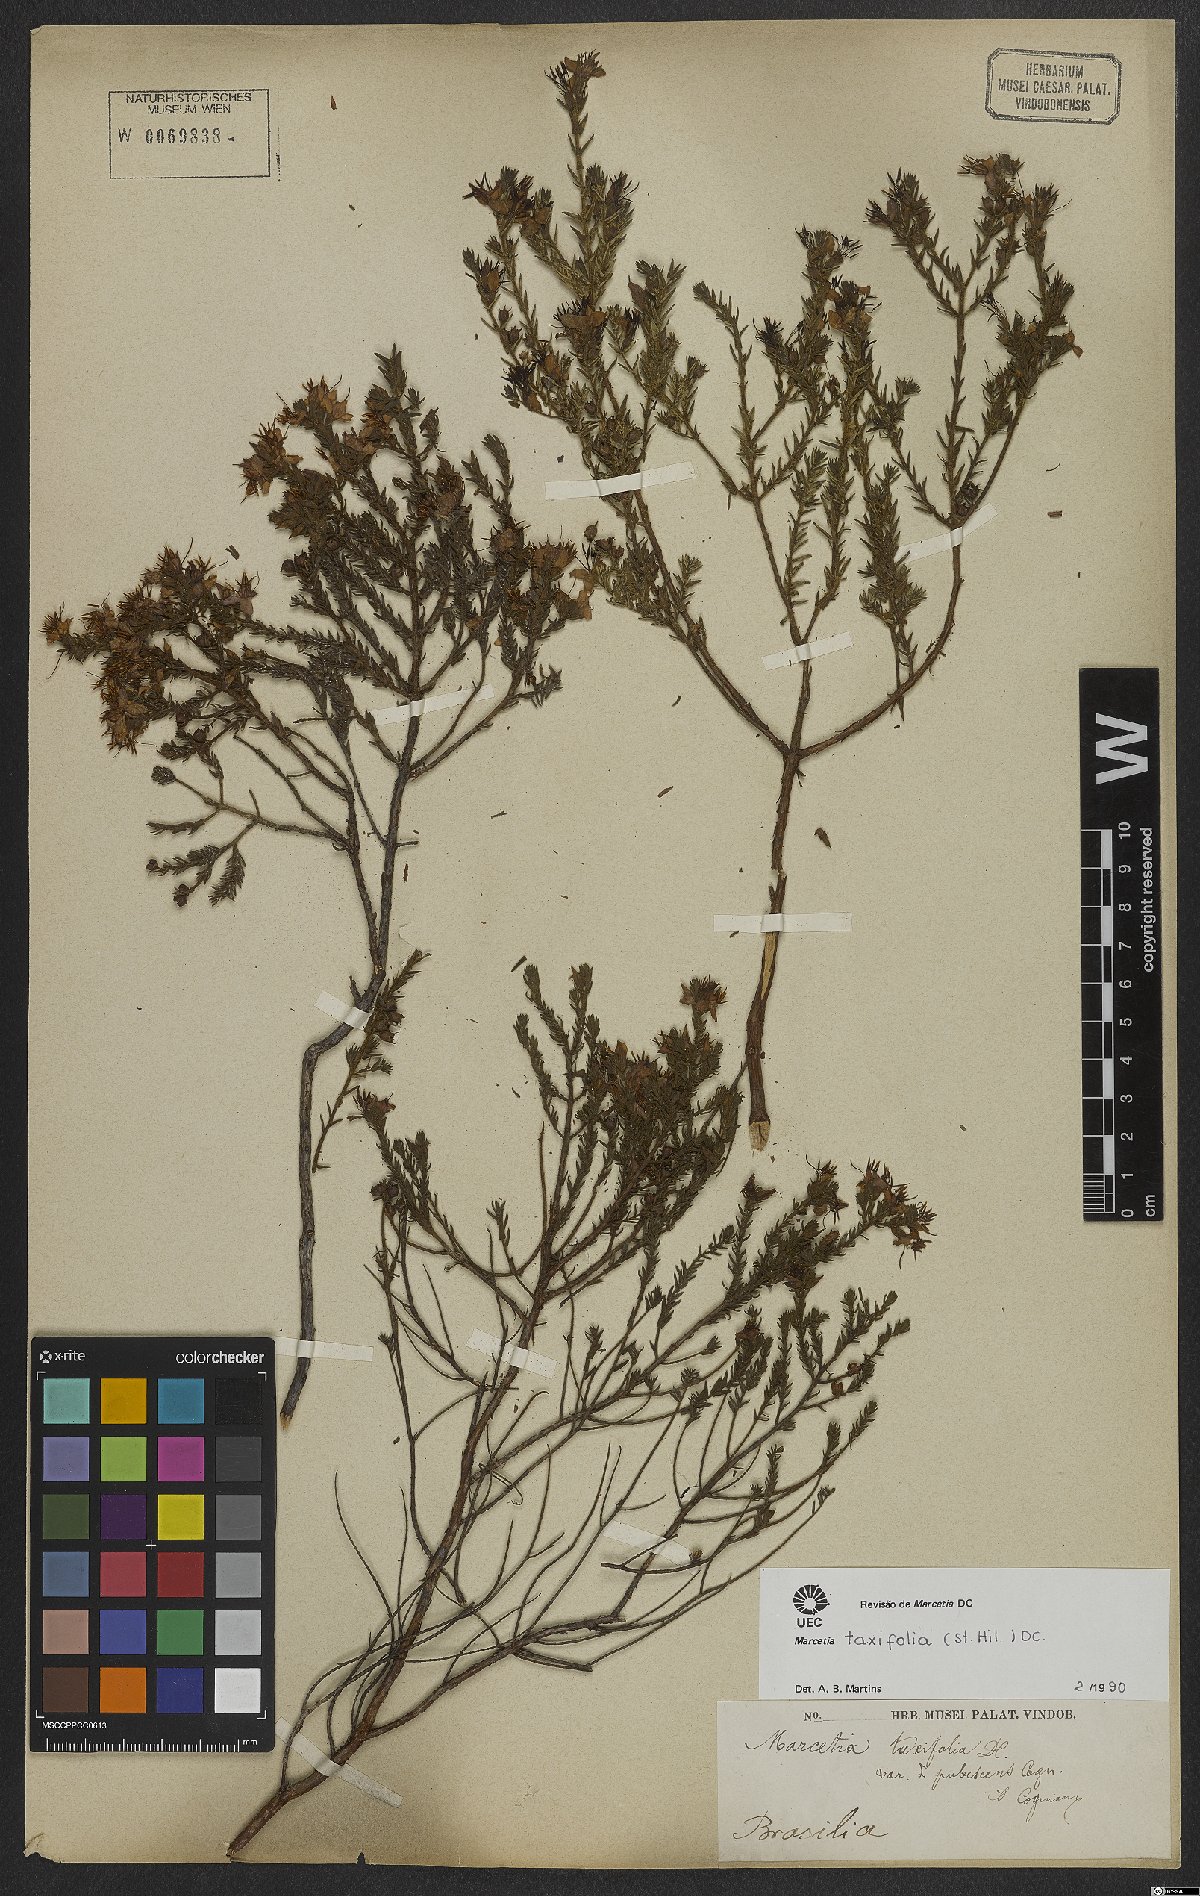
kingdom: Plantae
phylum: Tracheophyta
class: Magnoliopsida
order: Myrtales
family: Melastomataceae
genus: Marcetia
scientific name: Marcetia taxifolia
